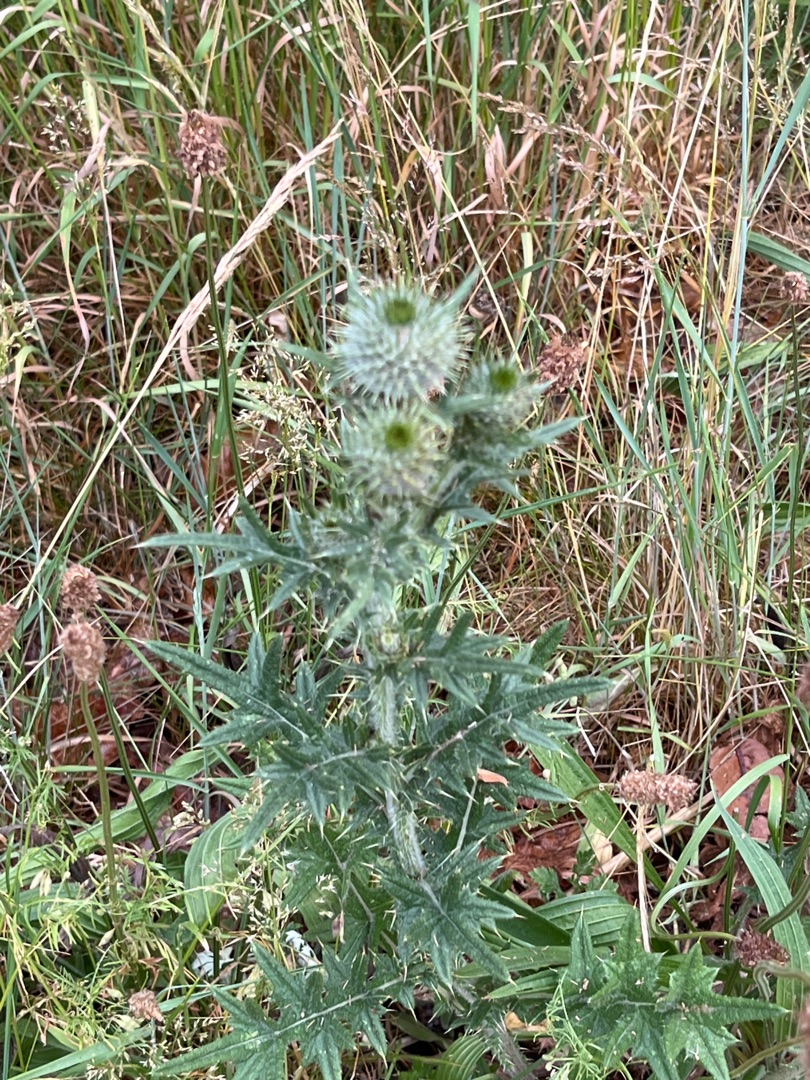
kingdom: Plantae
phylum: Tracheophyta
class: Magnoliopsida
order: Asterales
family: Asteraceae
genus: Cirsium
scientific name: Cirsium vulgare
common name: Horse-tidsel
